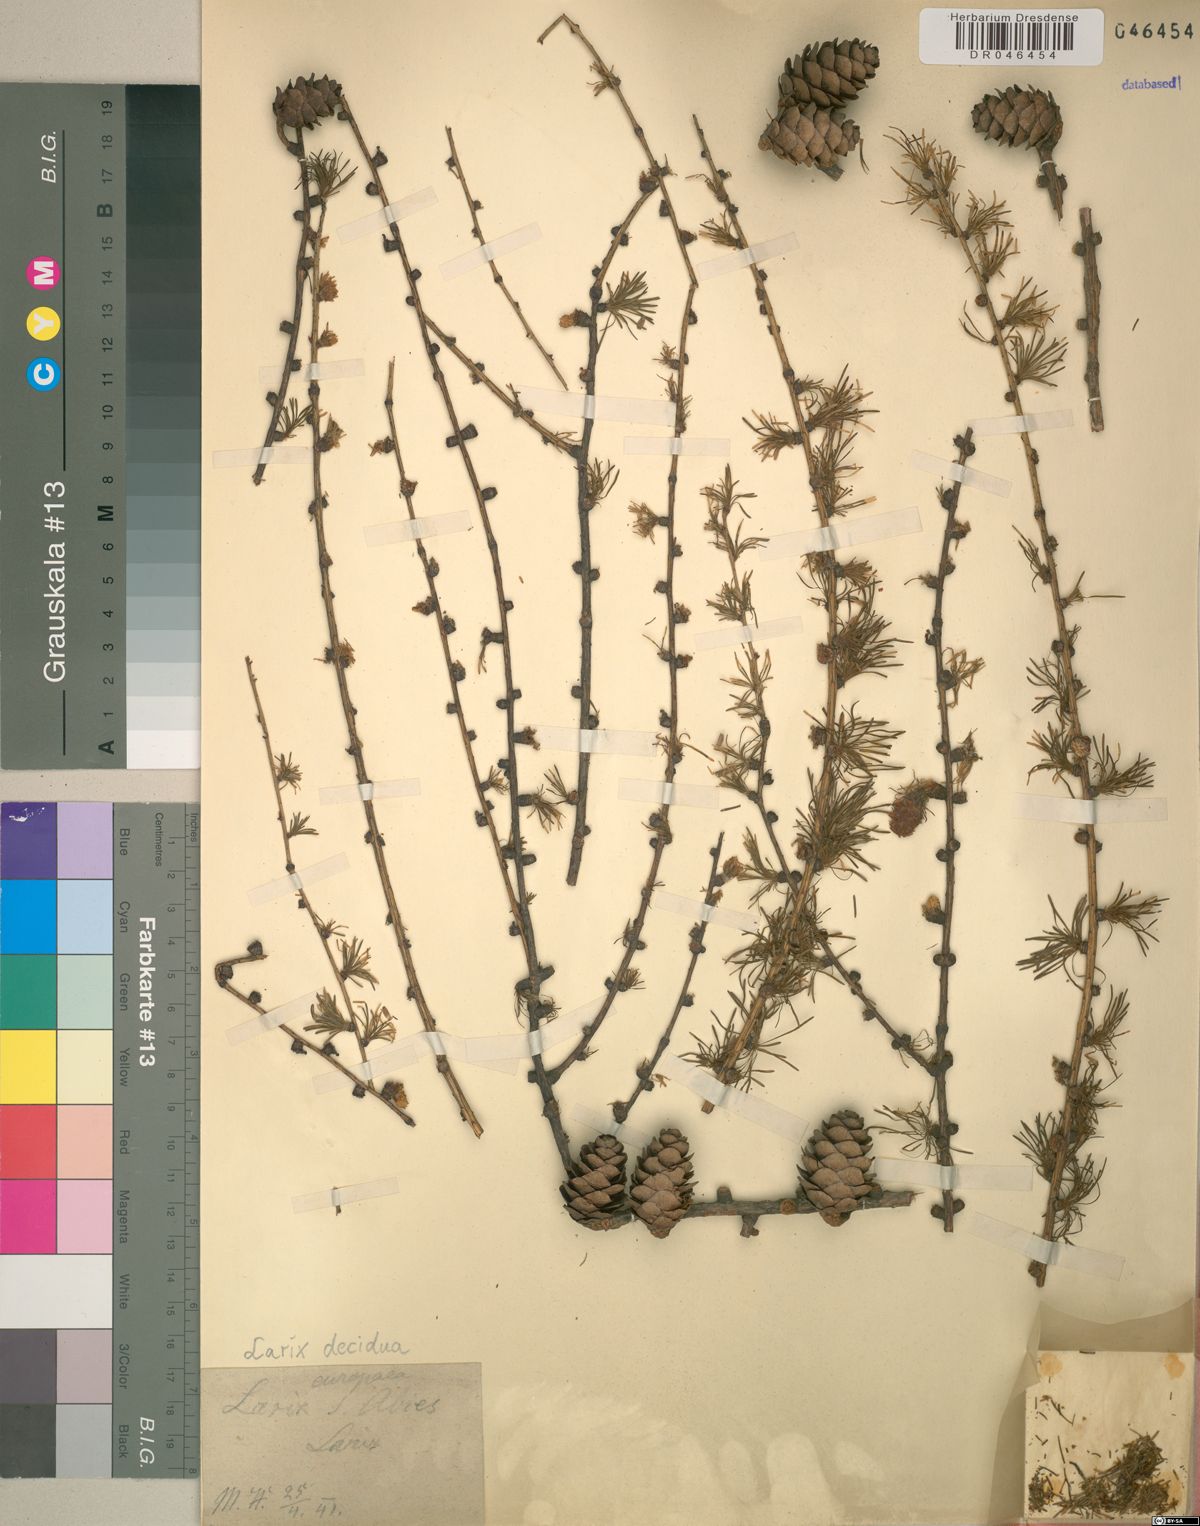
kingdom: Plantae
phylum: Tracheophyta
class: Pinopsida
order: Pinales
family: Pinaceae
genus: Larix
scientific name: Larix decidua
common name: European larch
